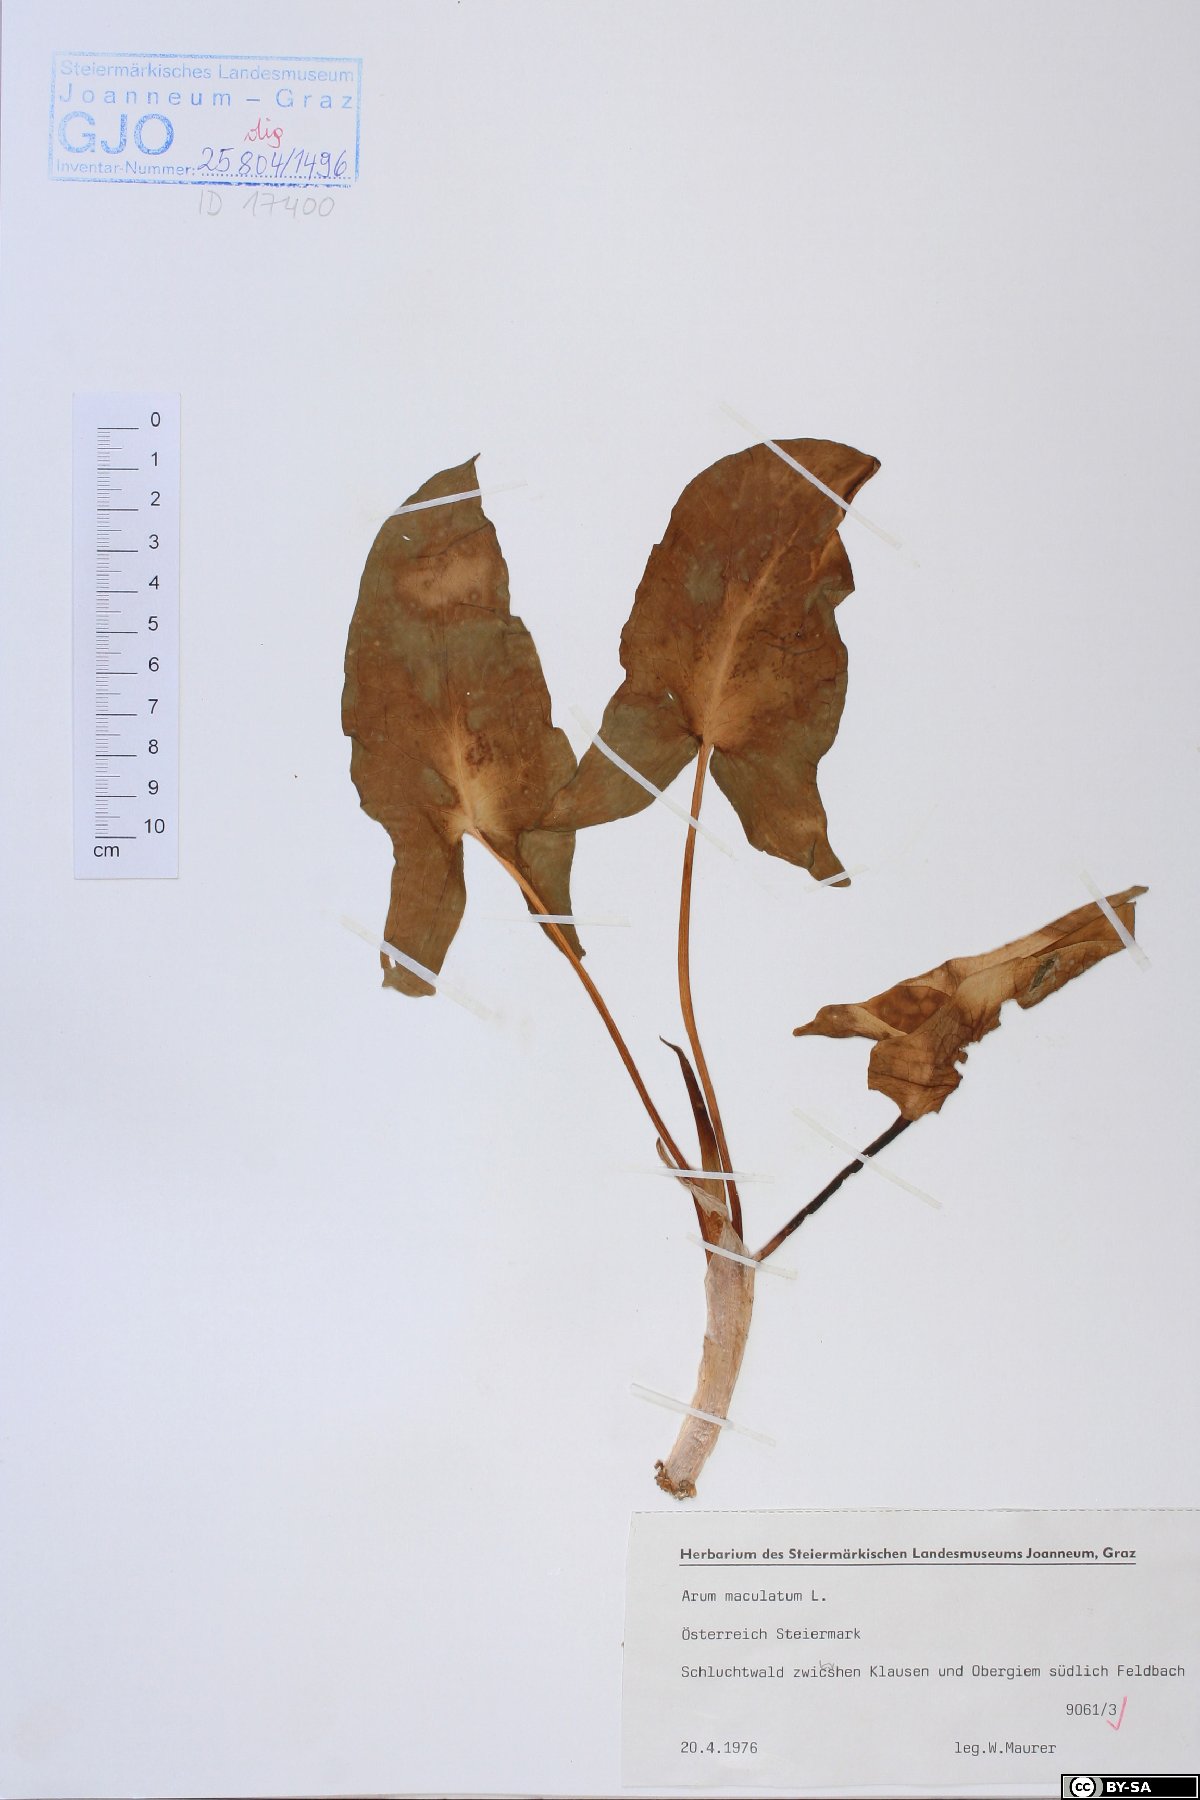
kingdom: Plantae
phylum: Tracheophyta
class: Liliopsida
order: Alismatales
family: Araceae
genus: Arum
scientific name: Arum maculatum
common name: Lords-and-ladies
